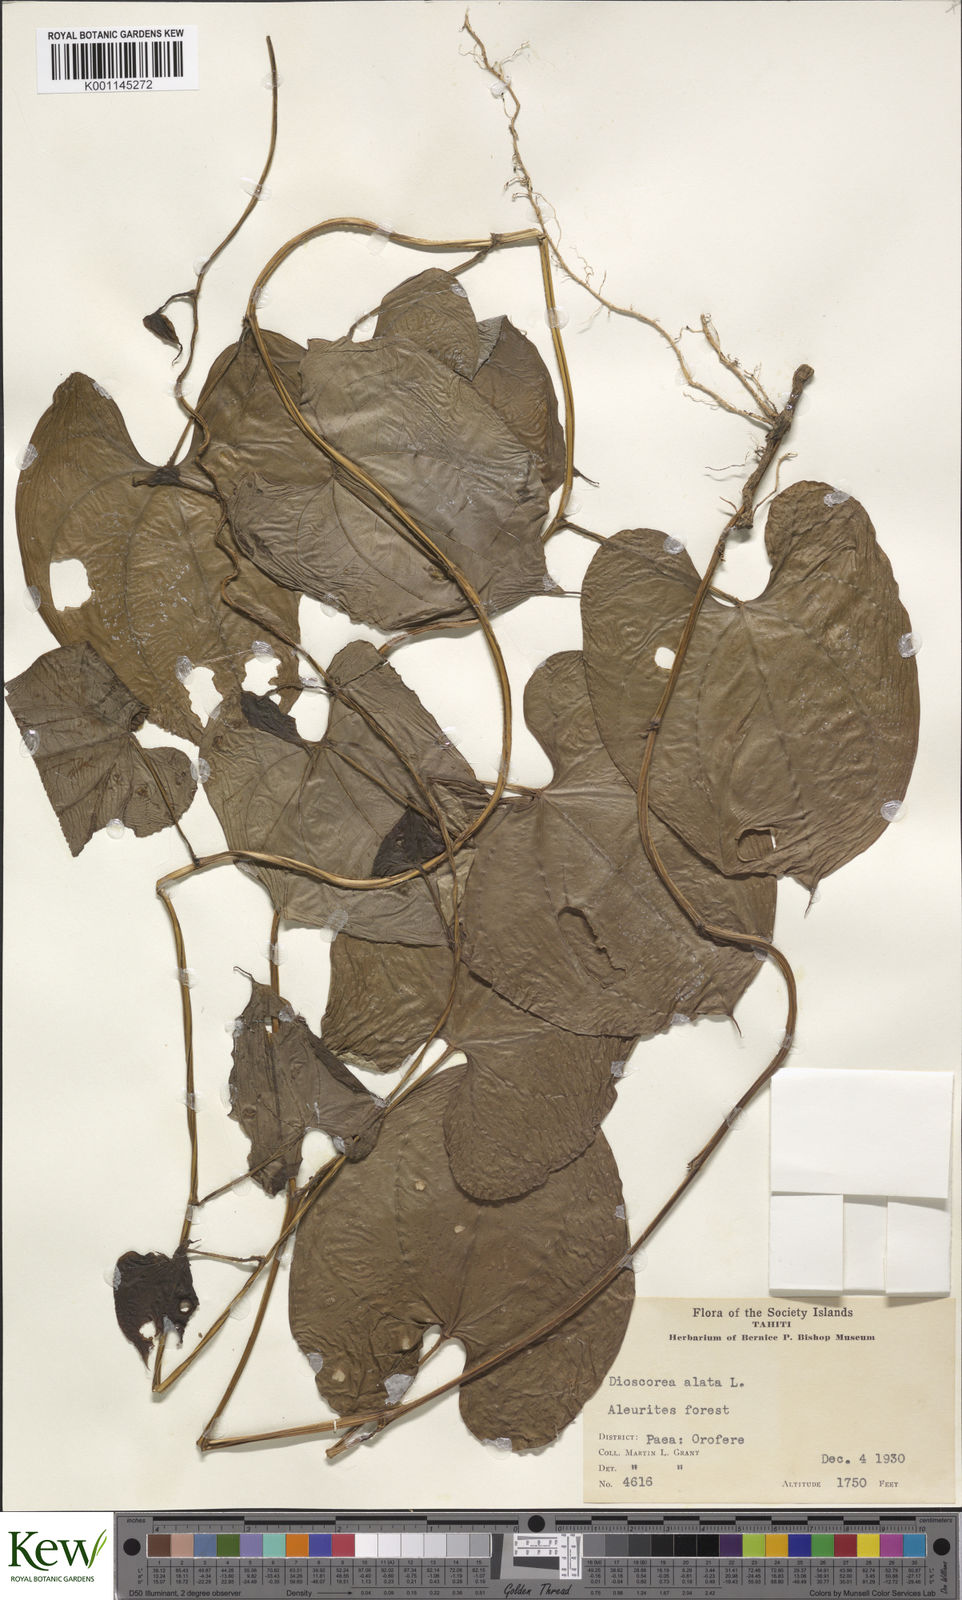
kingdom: Plantae
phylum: Tracheophyta
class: Liliopsida
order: Dioscoreales
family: Dioscoreaceae
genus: Dioscorea
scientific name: Dioscorea alata
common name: Water yam
